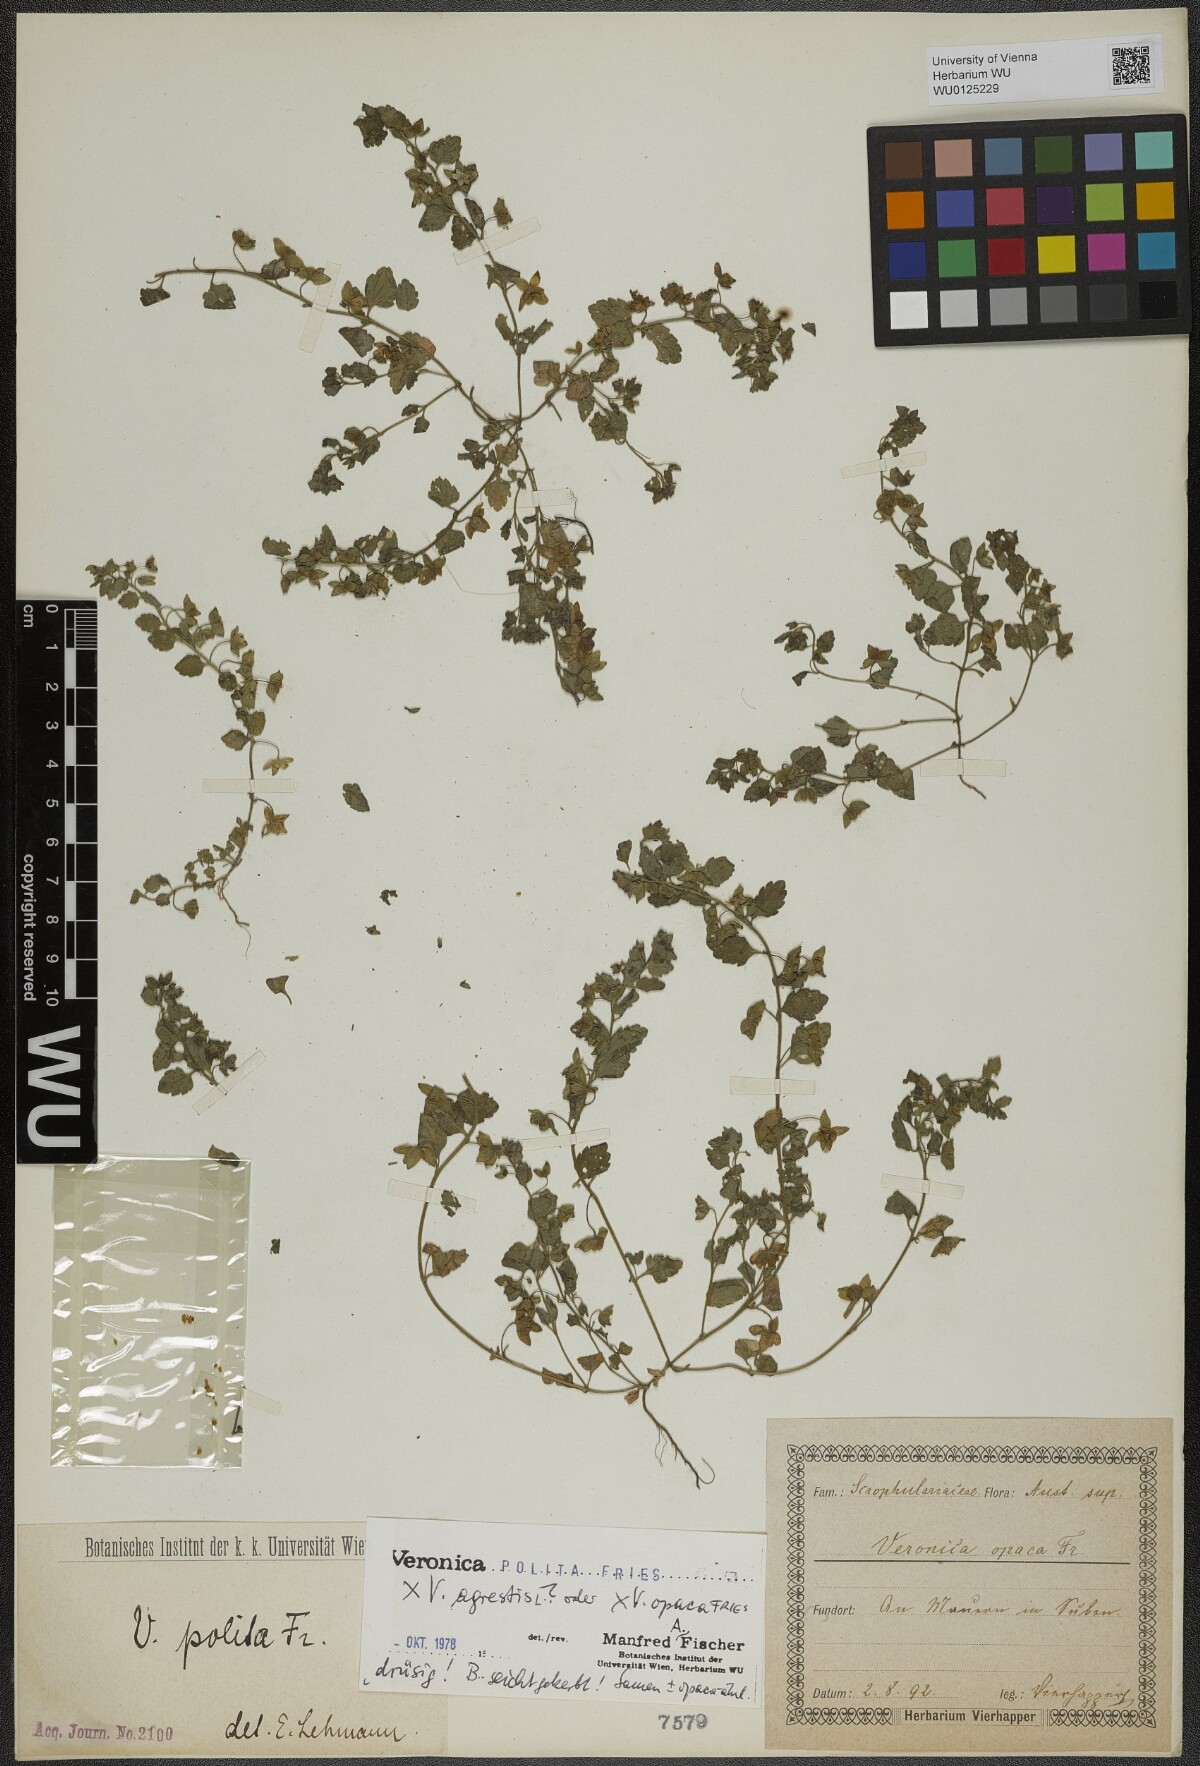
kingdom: Plantae
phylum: Tracheophyta
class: Magnoliopsida
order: Lamiales
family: Plantaginaceae
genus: Veronica
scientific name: Veronica polita
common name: Grey field-speedwell
